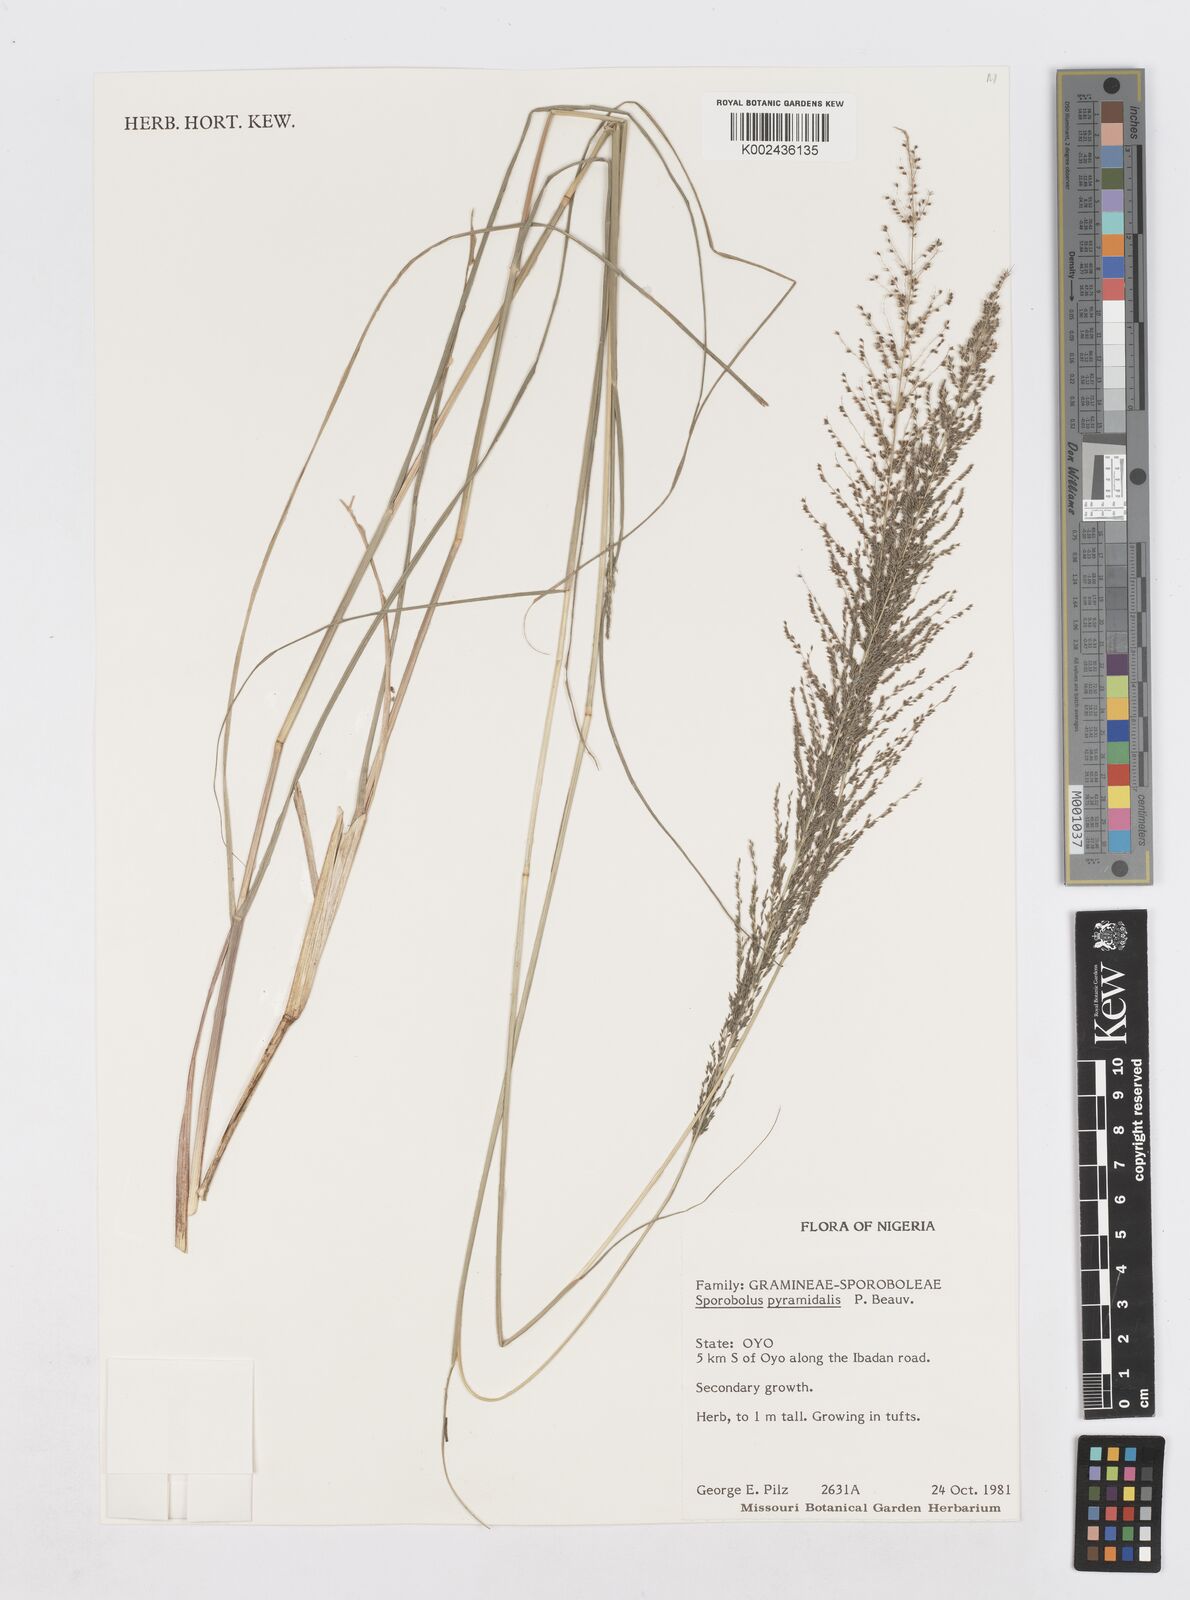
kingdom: Plantae
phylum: Tracheophyta
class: Liliopsida
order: Poales
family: Poaceae
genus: Sporobolus
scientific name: Sporobolus pyramidalis
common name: West indian dropseed
